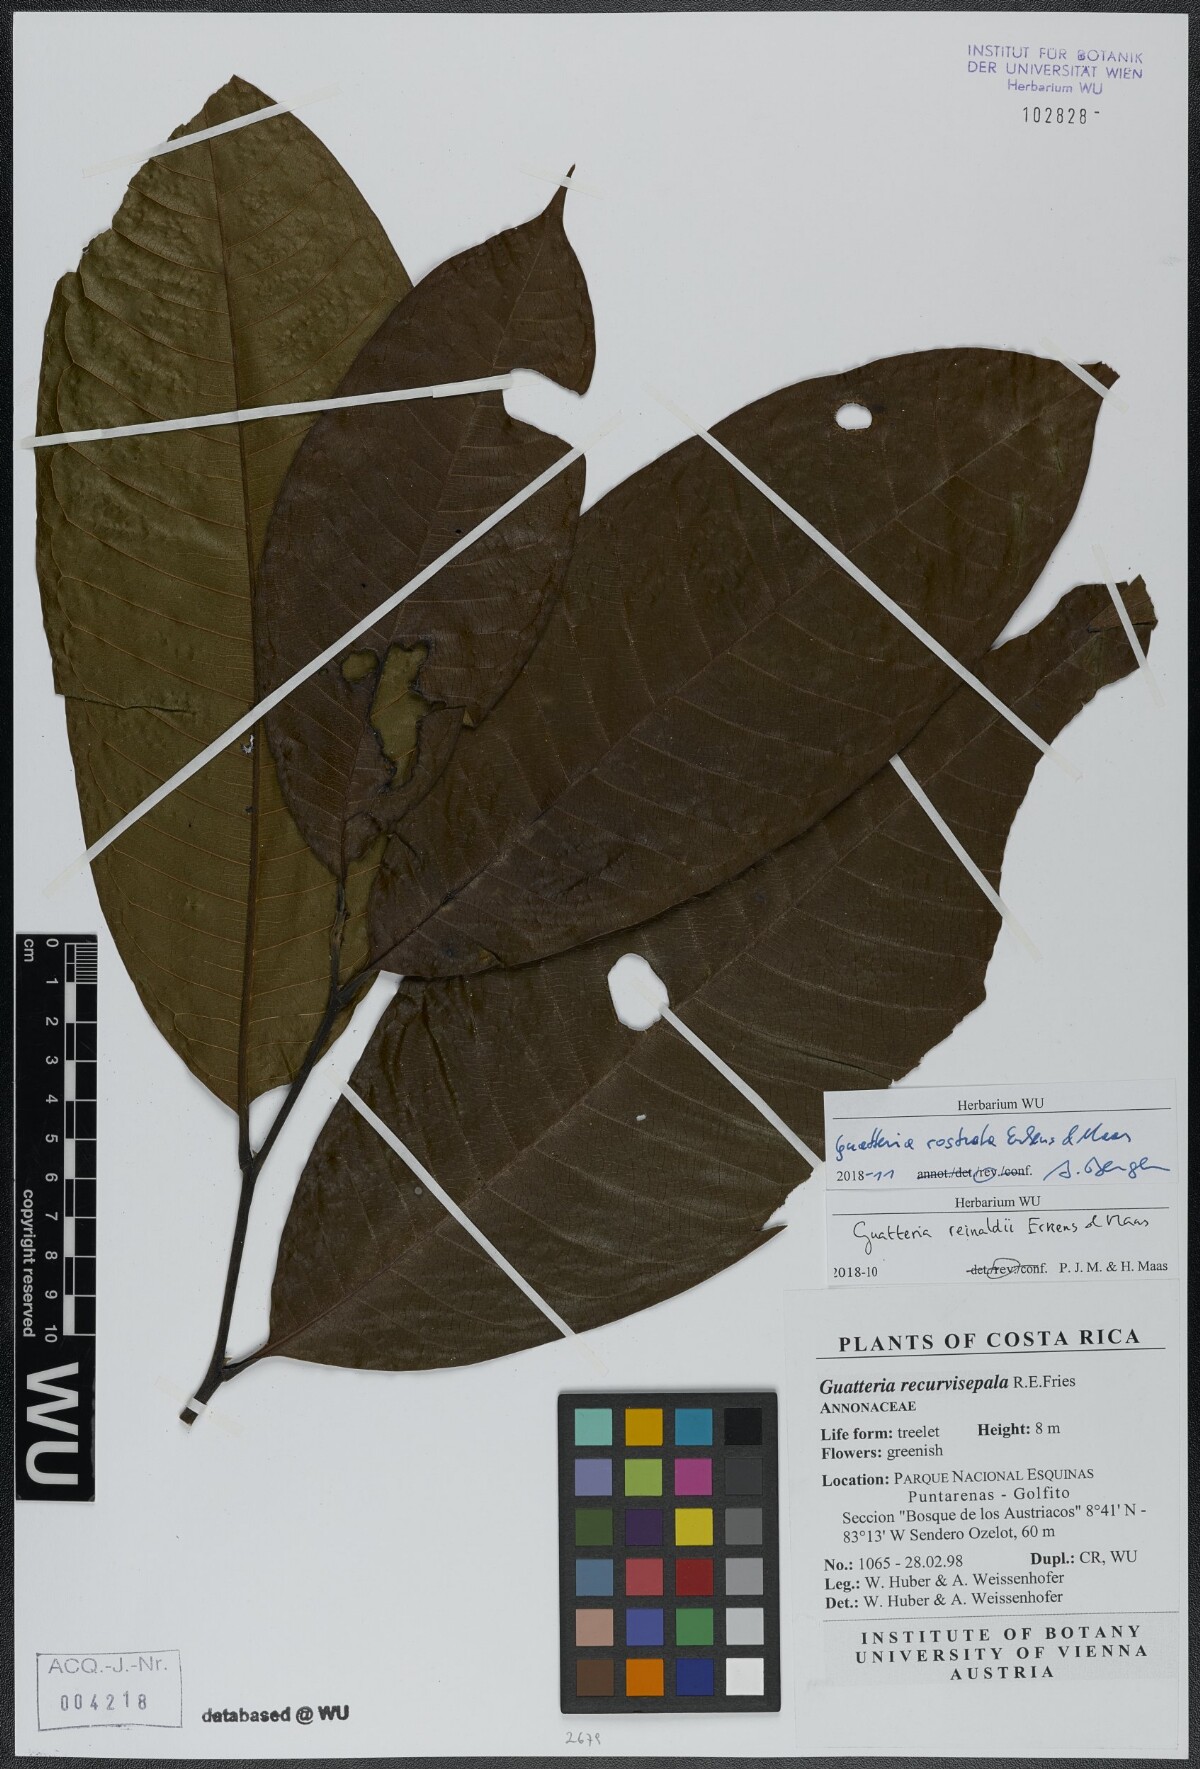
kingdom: Plantae
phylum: Tracheophyta
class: Magnoliopsida
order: Magnoliales
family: Annonaceae
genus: Guatteria
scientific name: Guatteria reinaldii
